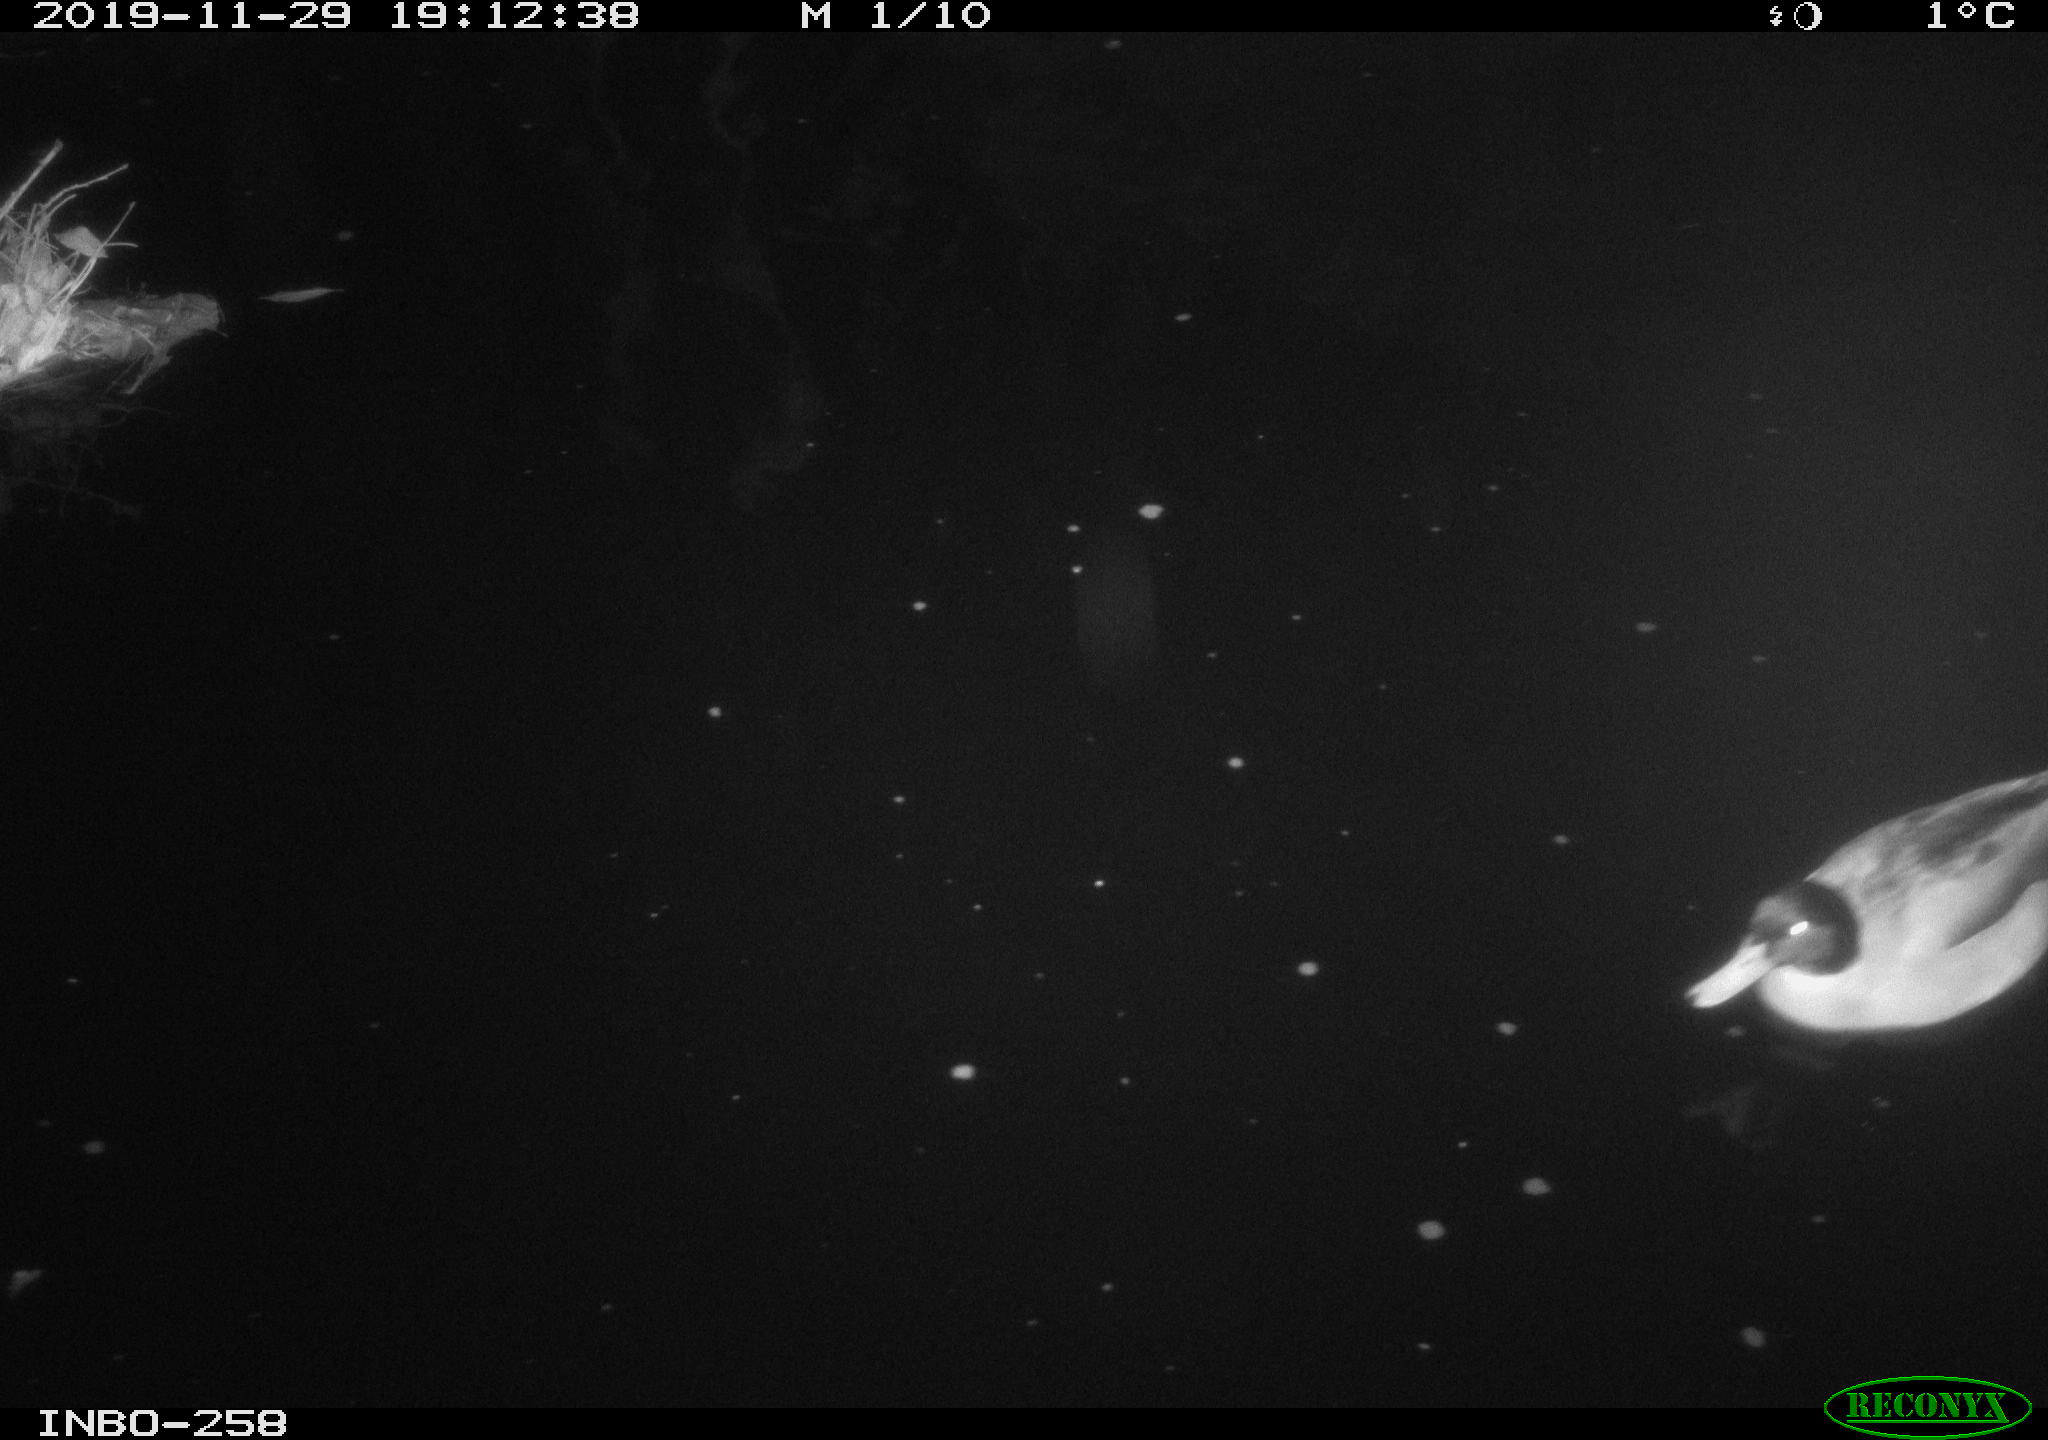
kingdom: Animalia
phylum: Chordata
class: Aves
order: Anseriformes
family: Anatidae
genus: Anas
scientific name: Anas platyrhynchos
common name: Mallard
